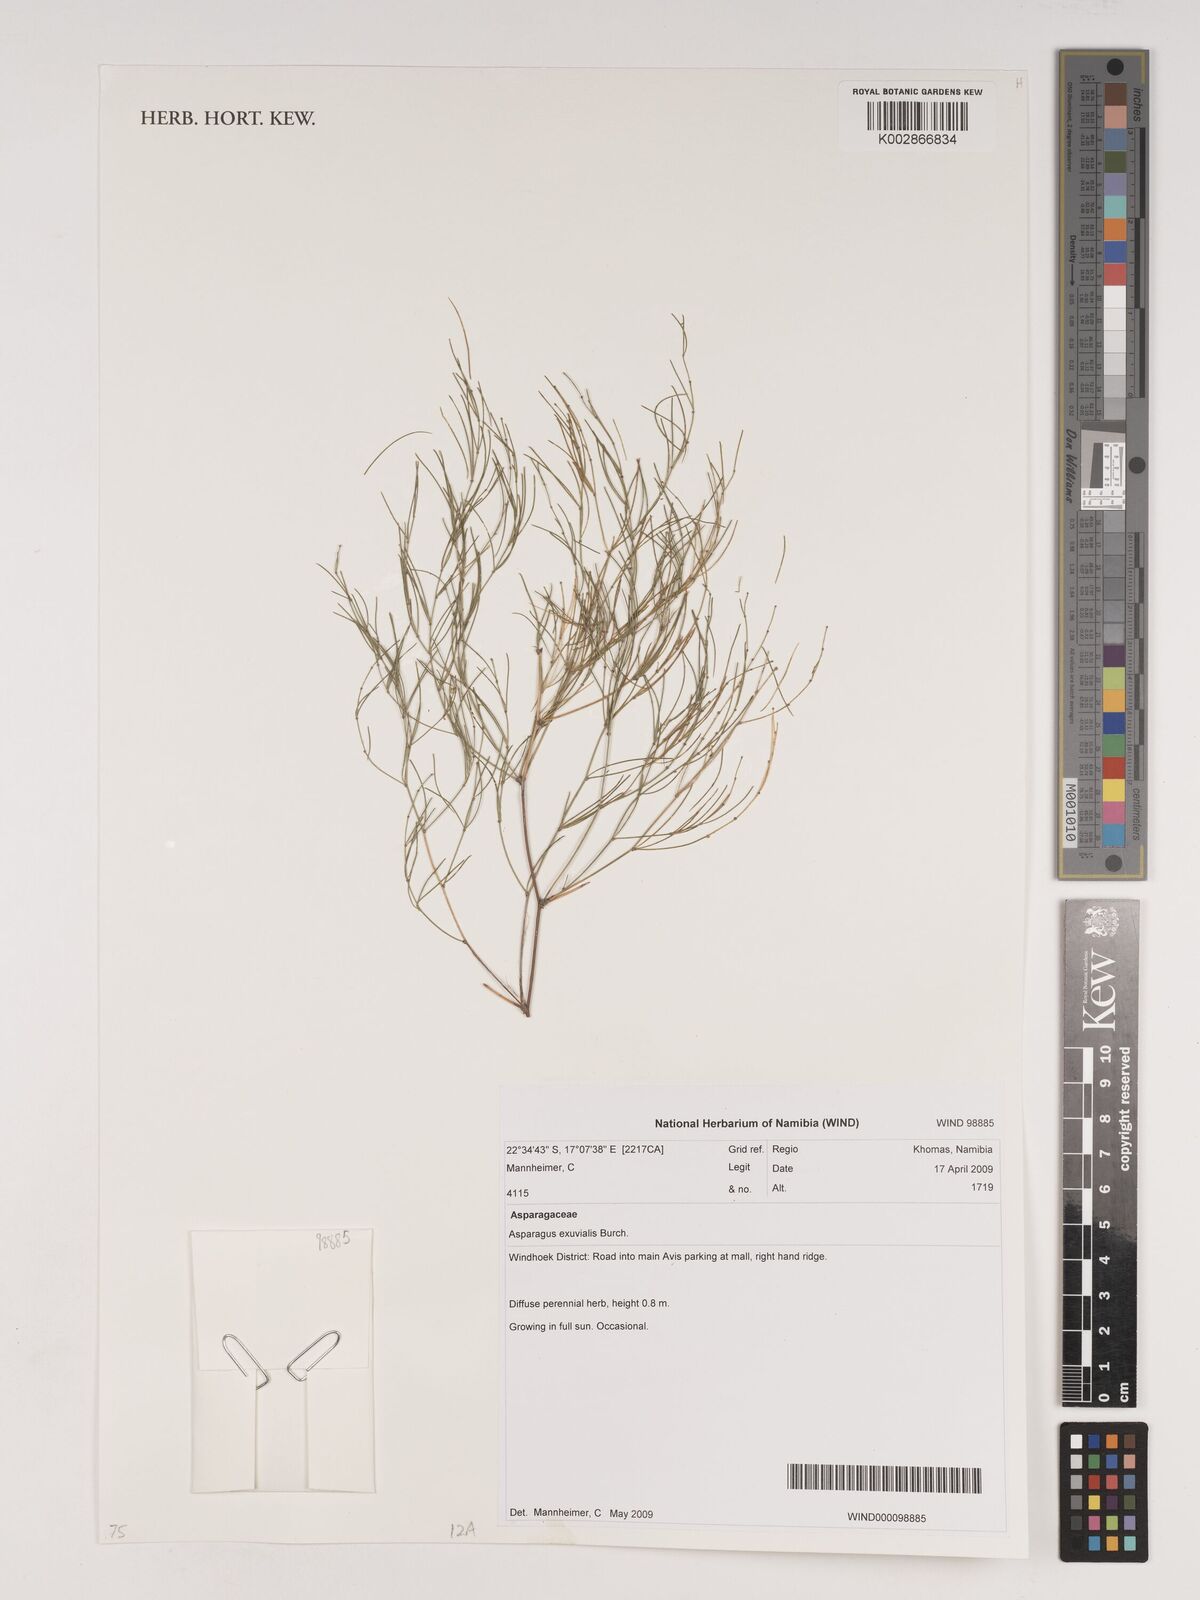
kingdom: Plantae
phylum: Tracheophyta
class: Liliopsida
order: Asparagales
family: Asparagaceae
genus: Asparagus
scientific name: Asparagus exuvialis
